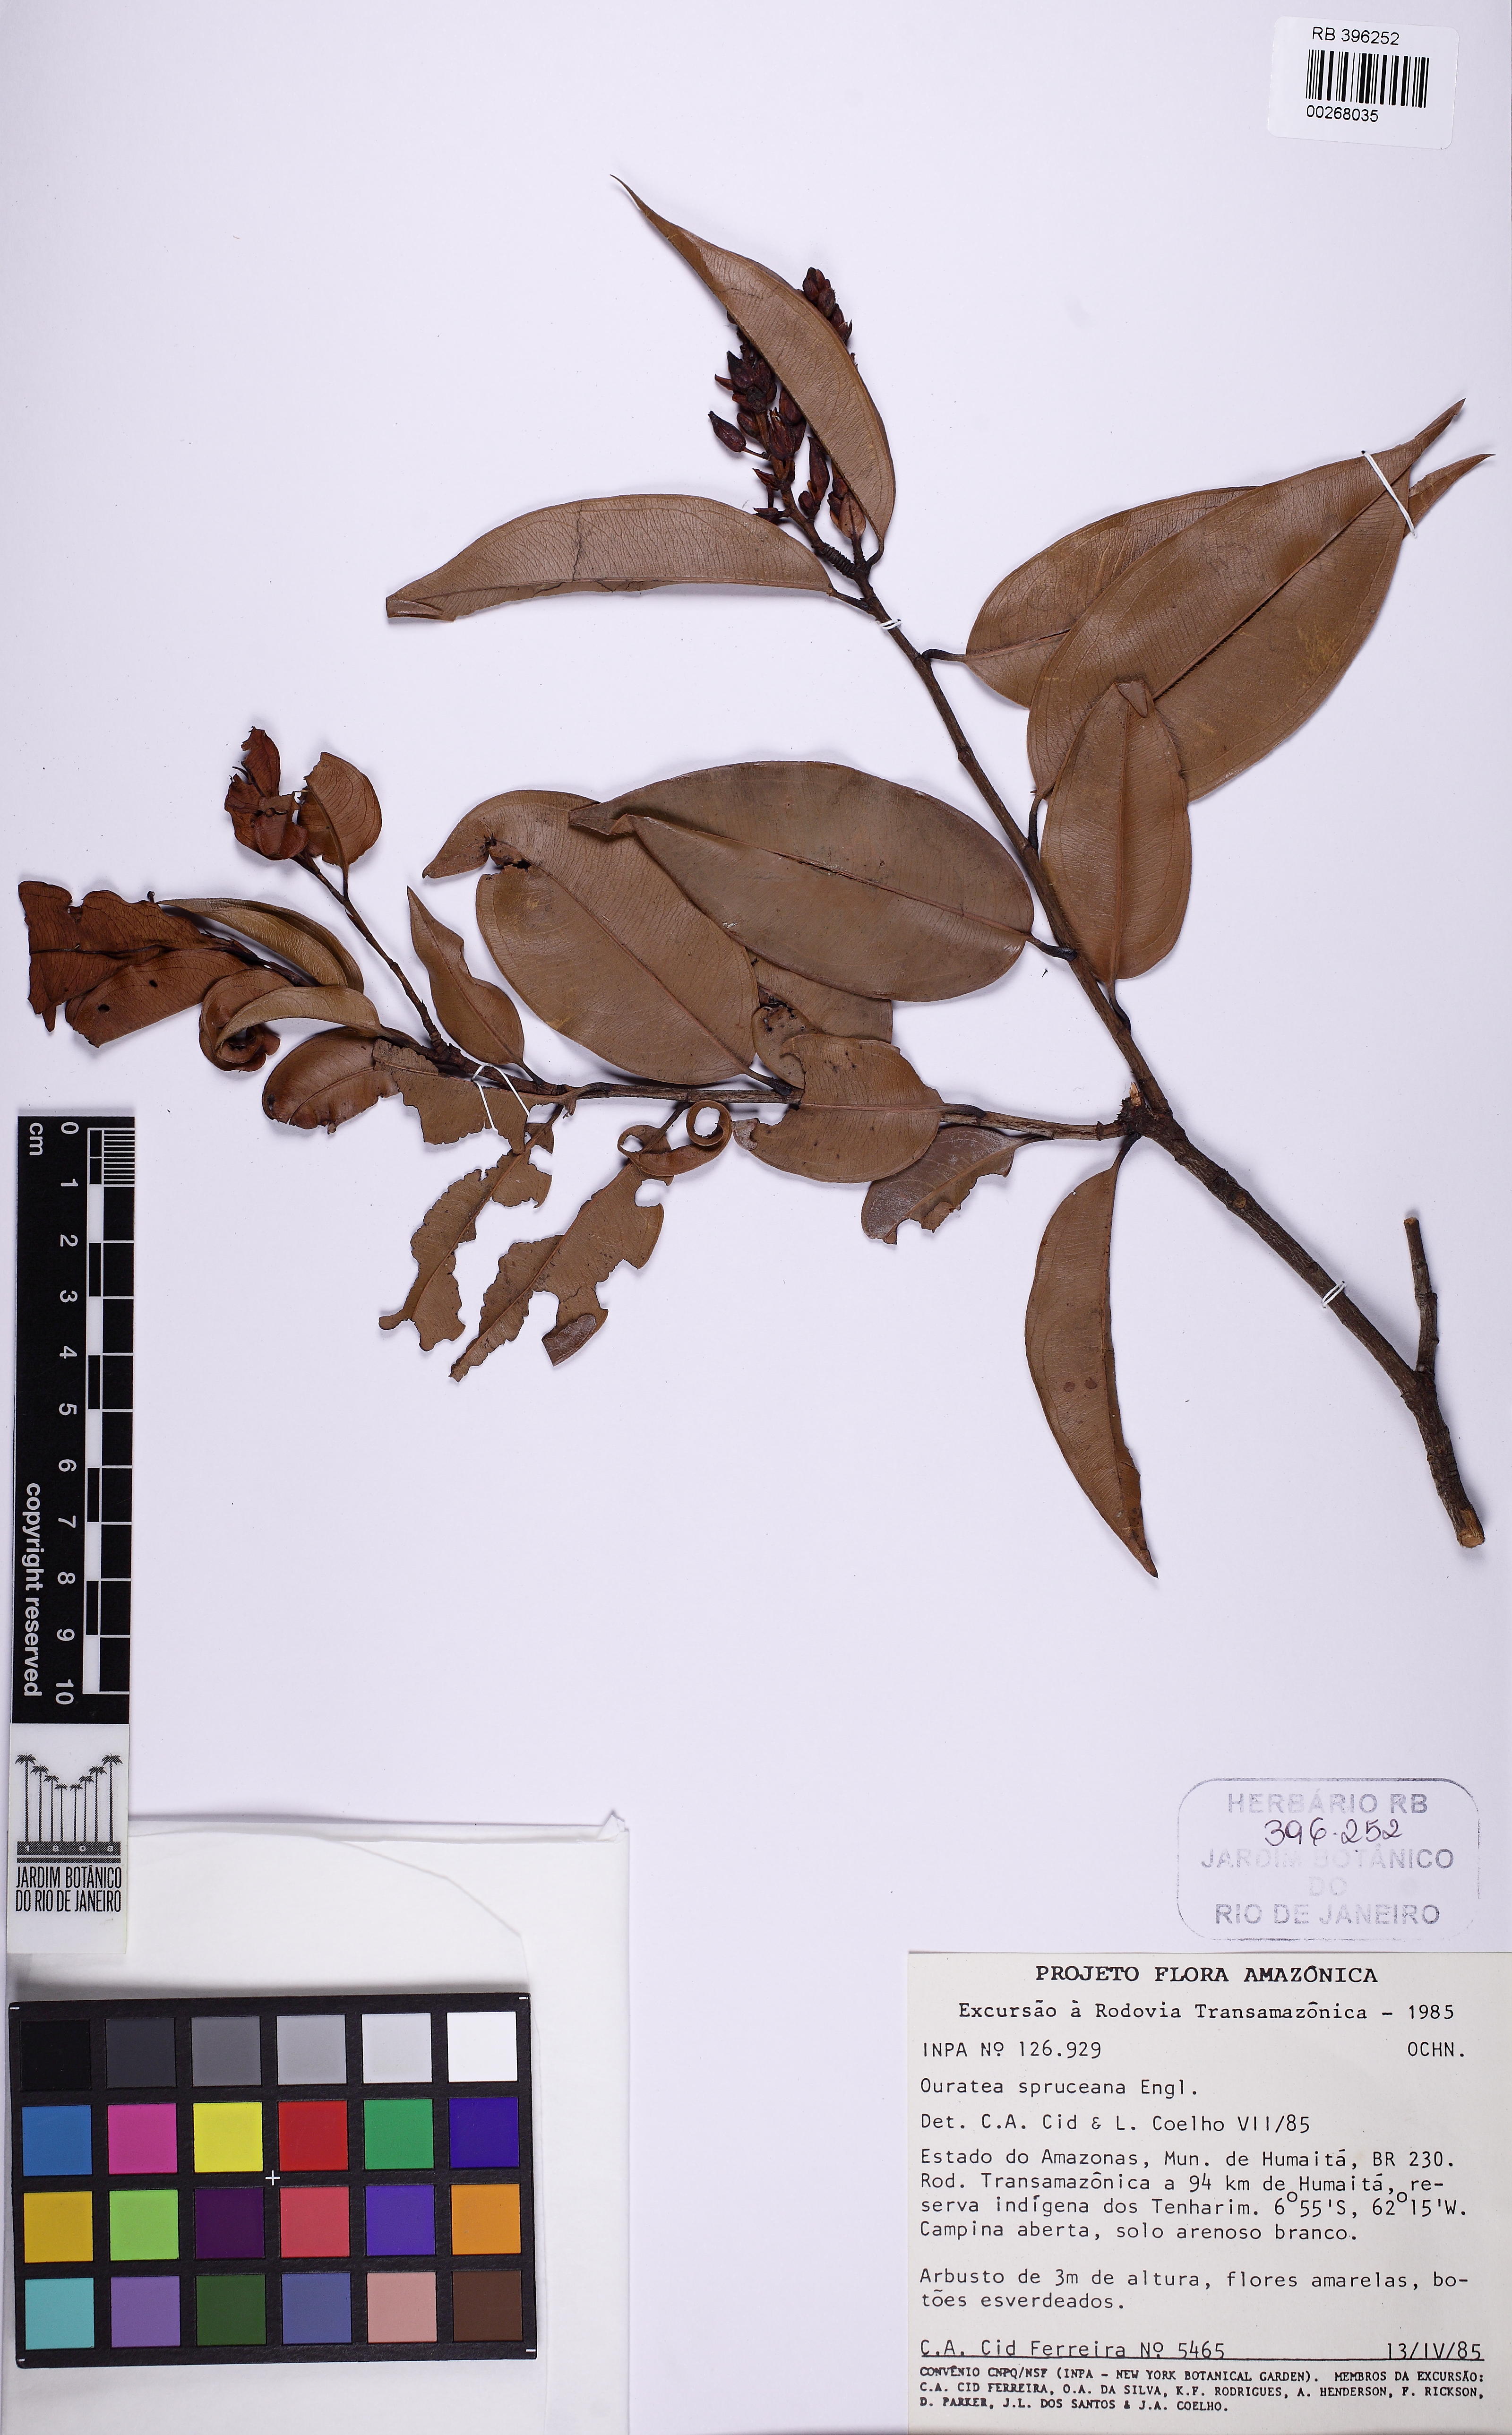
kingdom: Plantae
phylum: Tracheophyta
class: Magnoliopsida
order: Malpighiales
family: Ochnaceae
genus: Ouratea
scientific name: Ouratea spruceana
